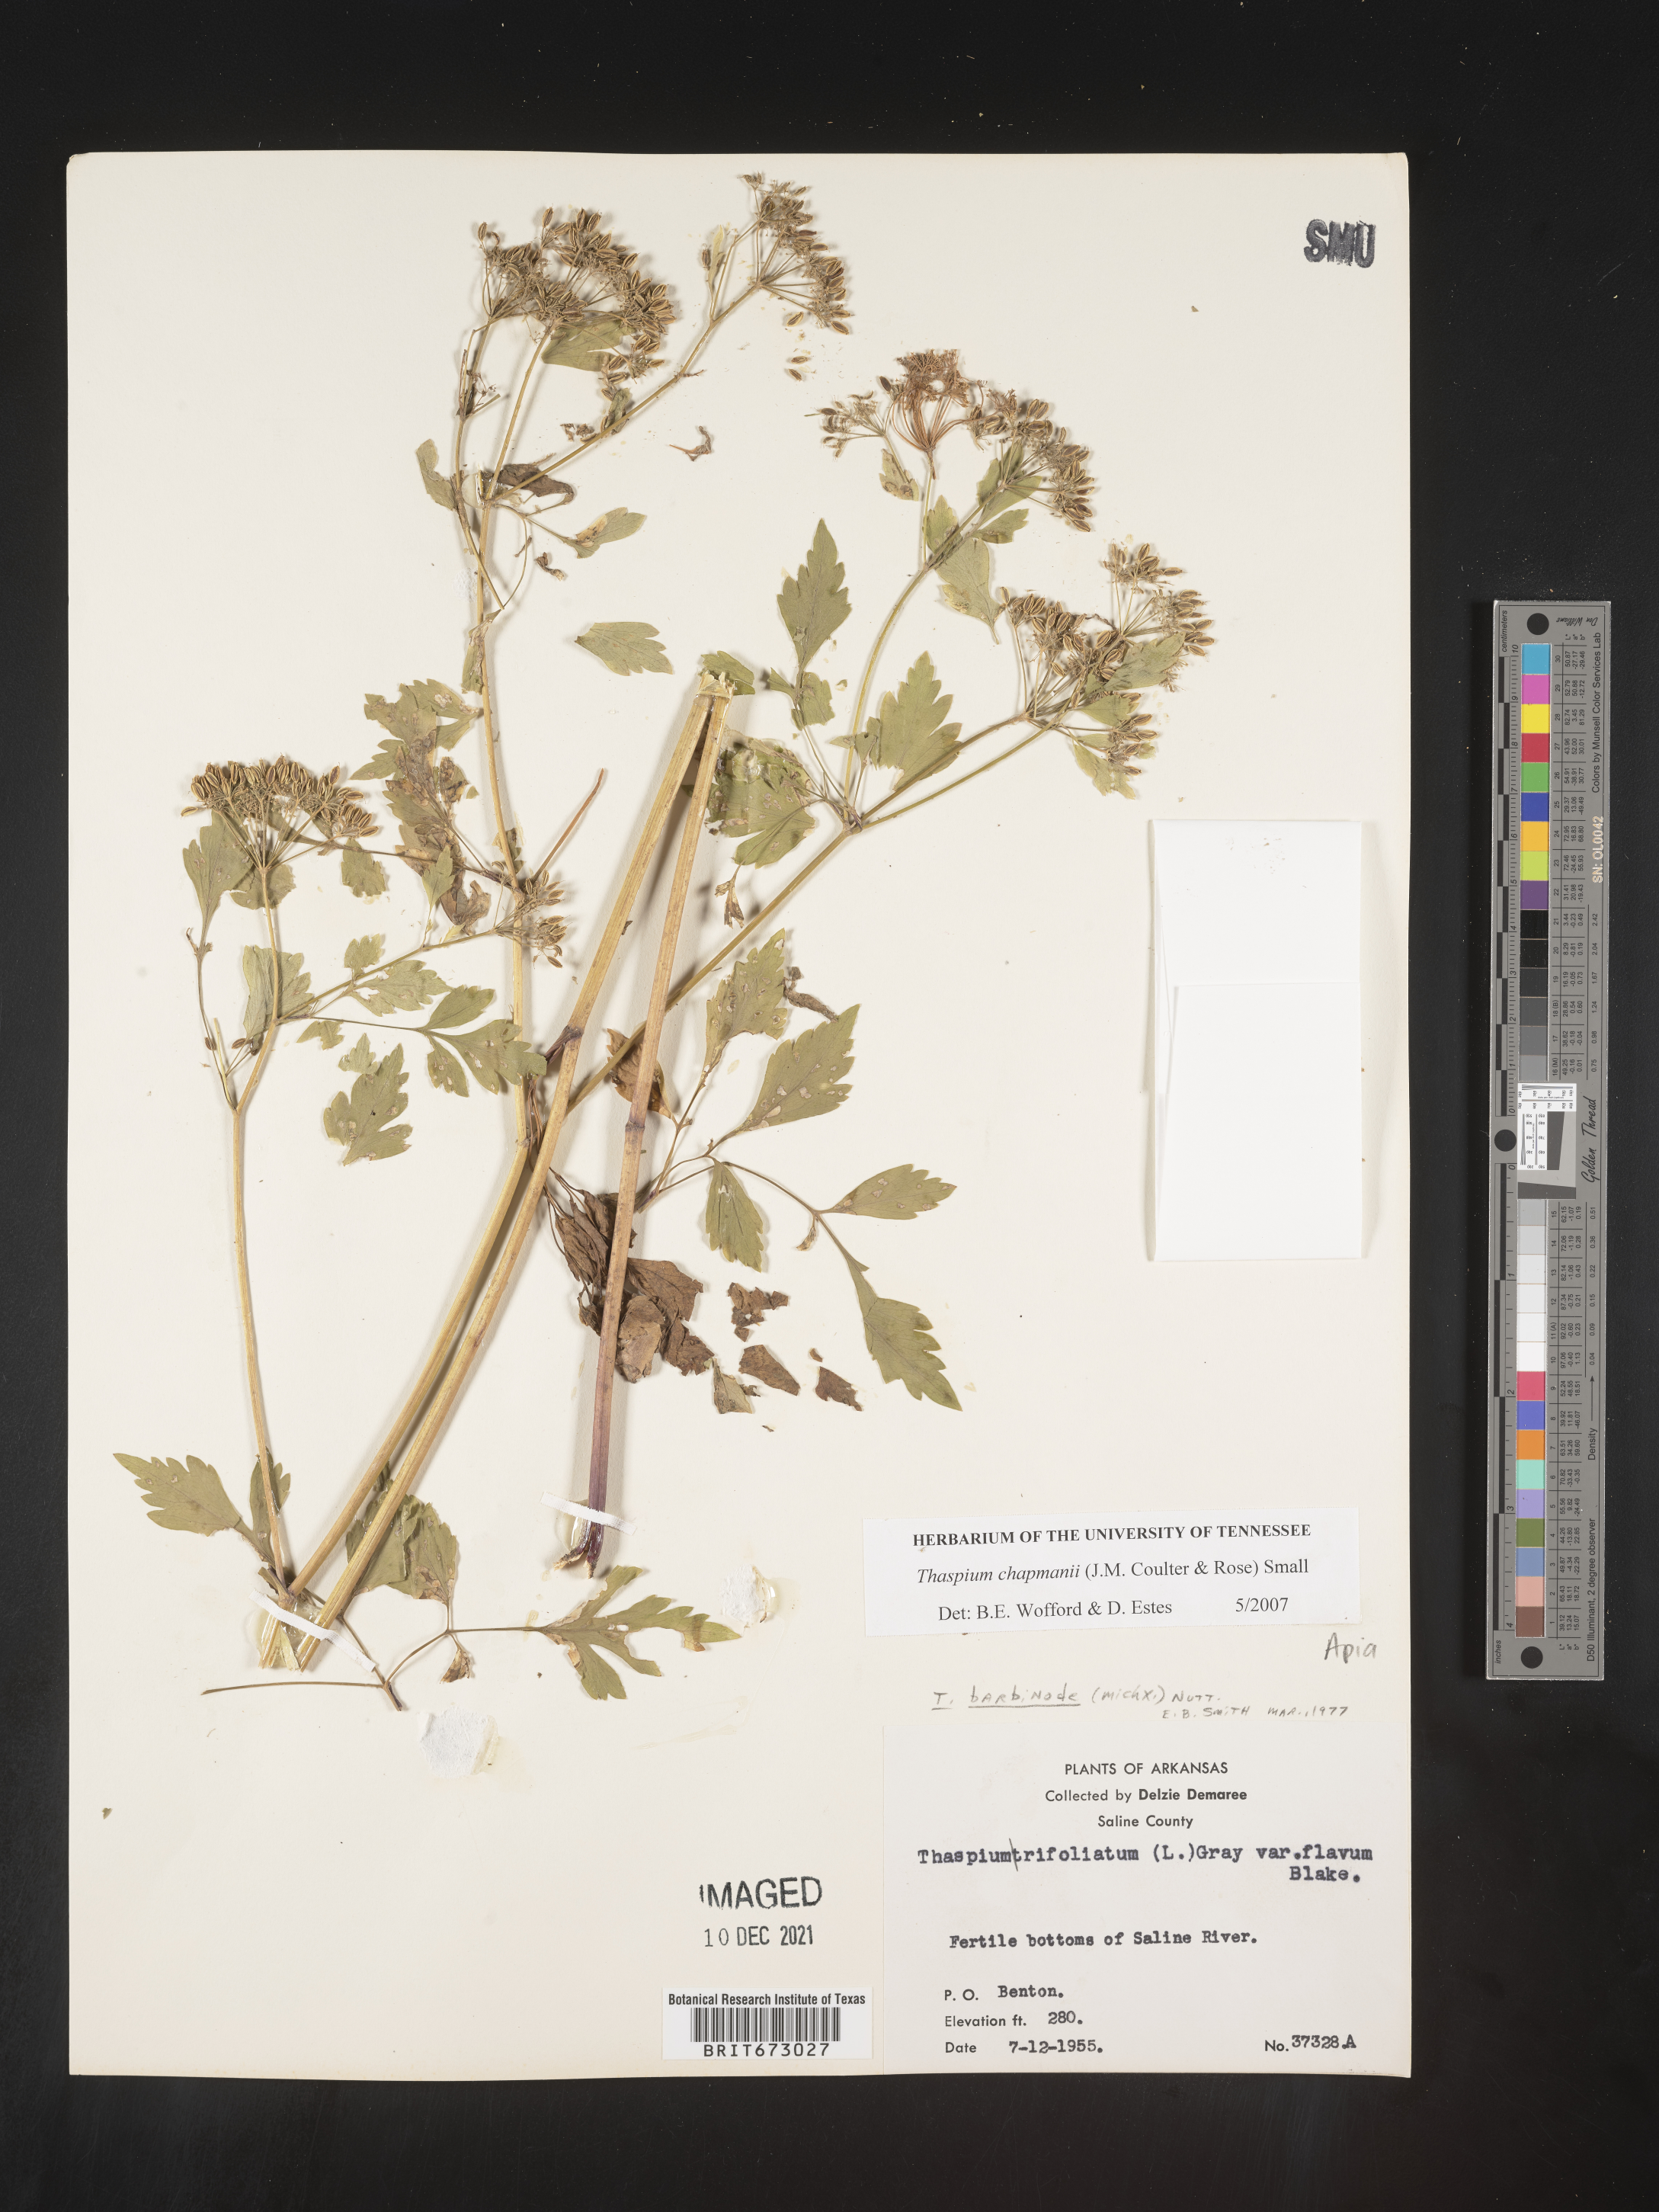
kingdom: Plantae
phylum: Tracheophyta
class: Magnoliopsida
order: Apiales
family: Apiaceae
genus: Thaspium
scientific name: Thaspium barbinode
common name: Bearded meadow-parsnip
